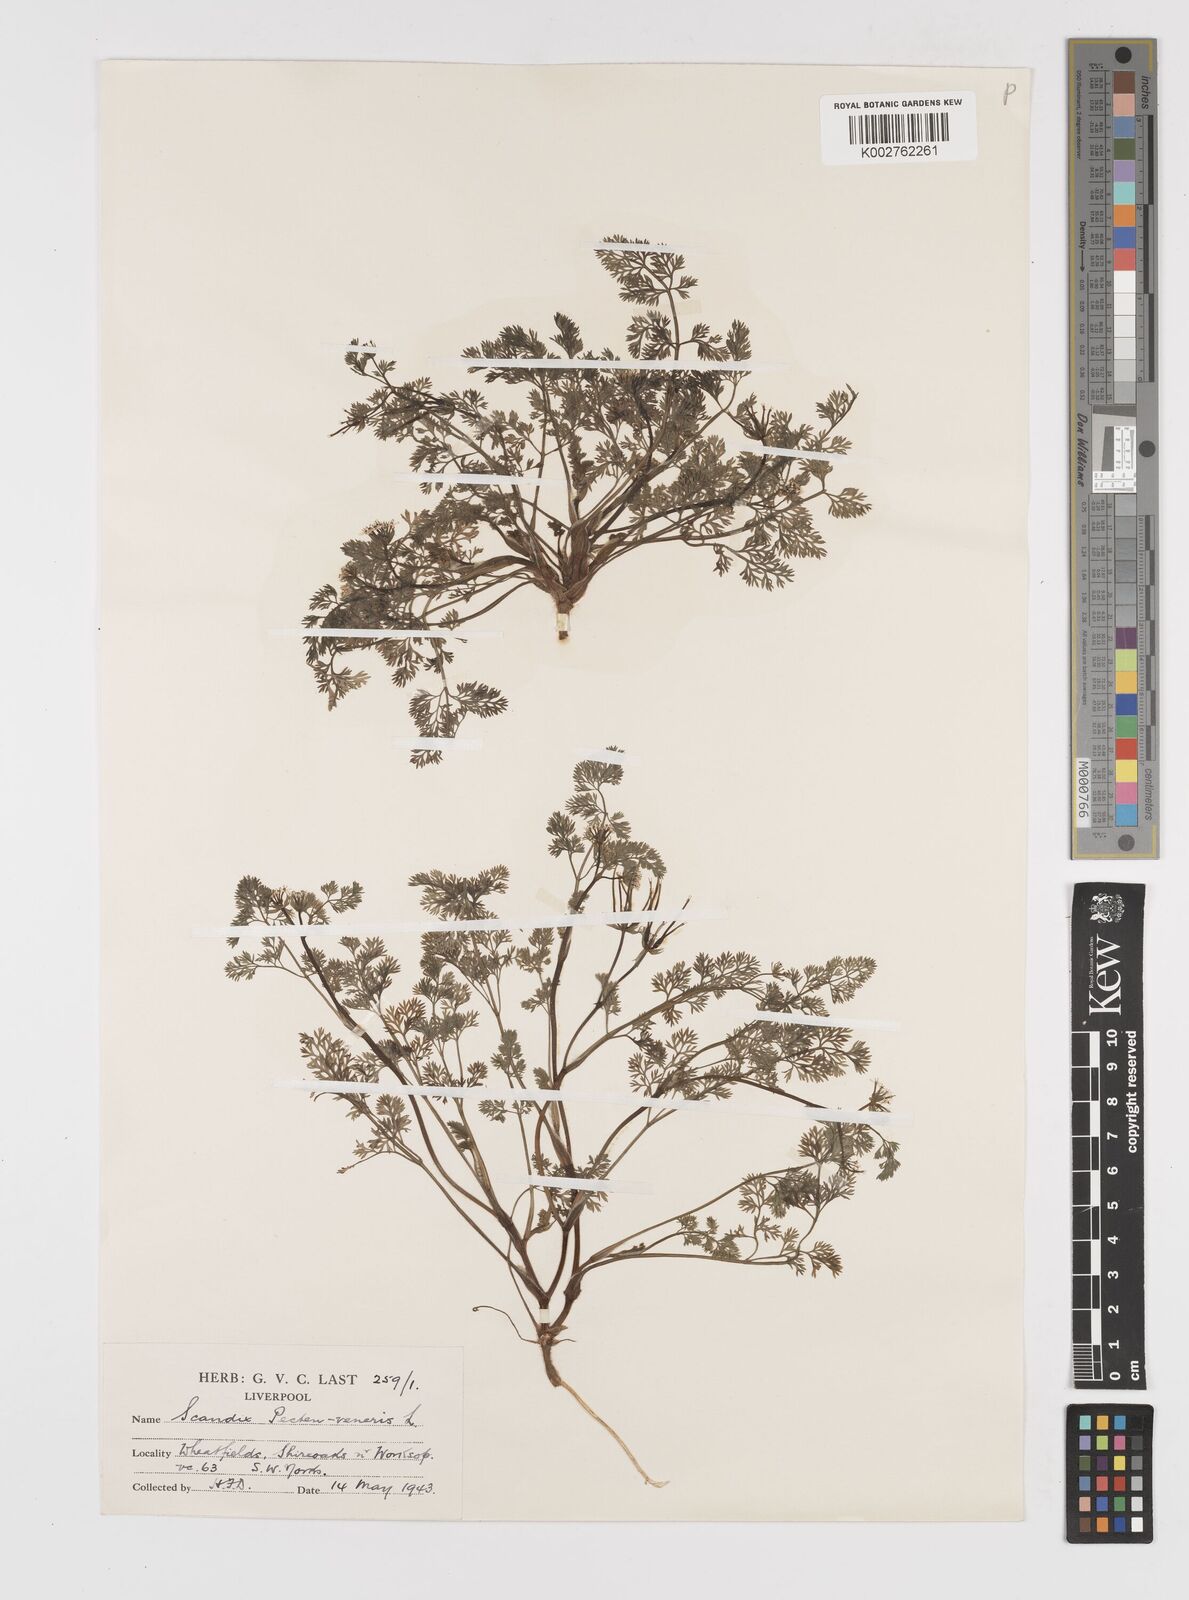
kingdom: Plantae
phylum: Tracheophyta
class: Magnoliopsida
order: Apiales
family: Apiaceae
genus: Scandix
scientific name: Scandix pecten-veneris
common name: Shepherd's-needle
